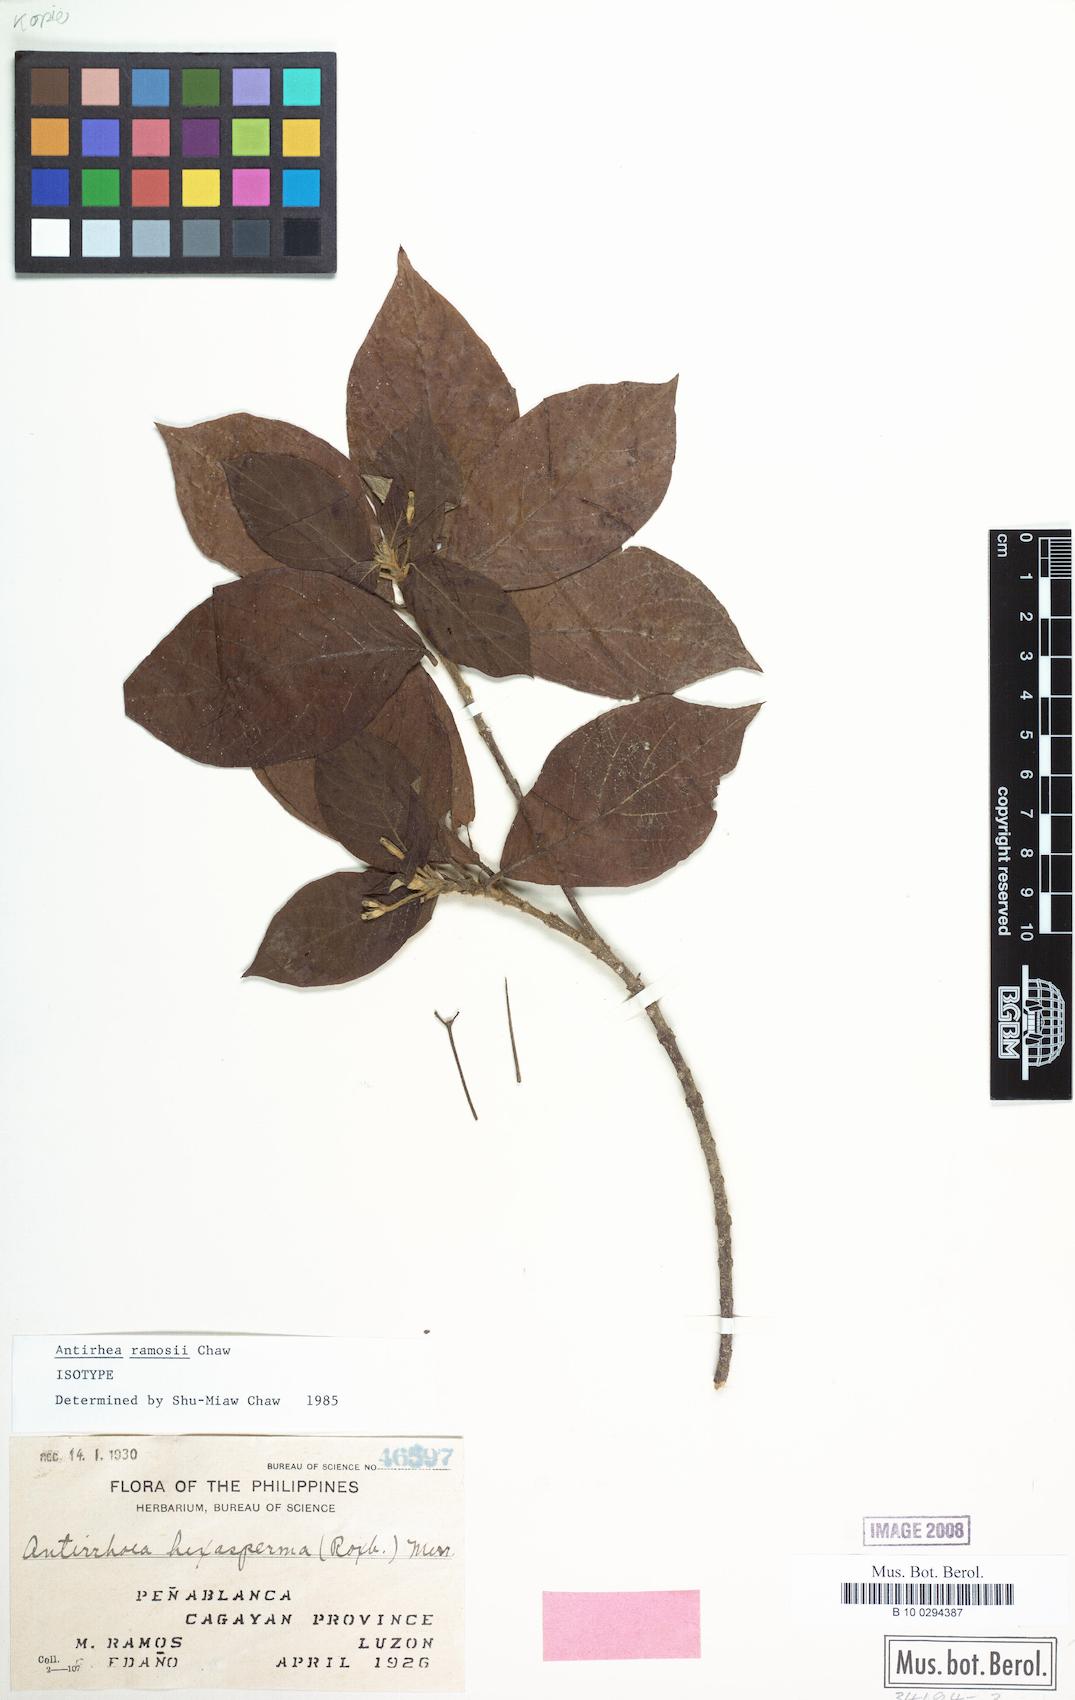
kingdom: Plantae
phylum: Tracheophyta
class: Magnoliopsida
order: Gentianales
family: Rubiaceae
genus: Guettardella
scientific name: Guettardella ramosii
